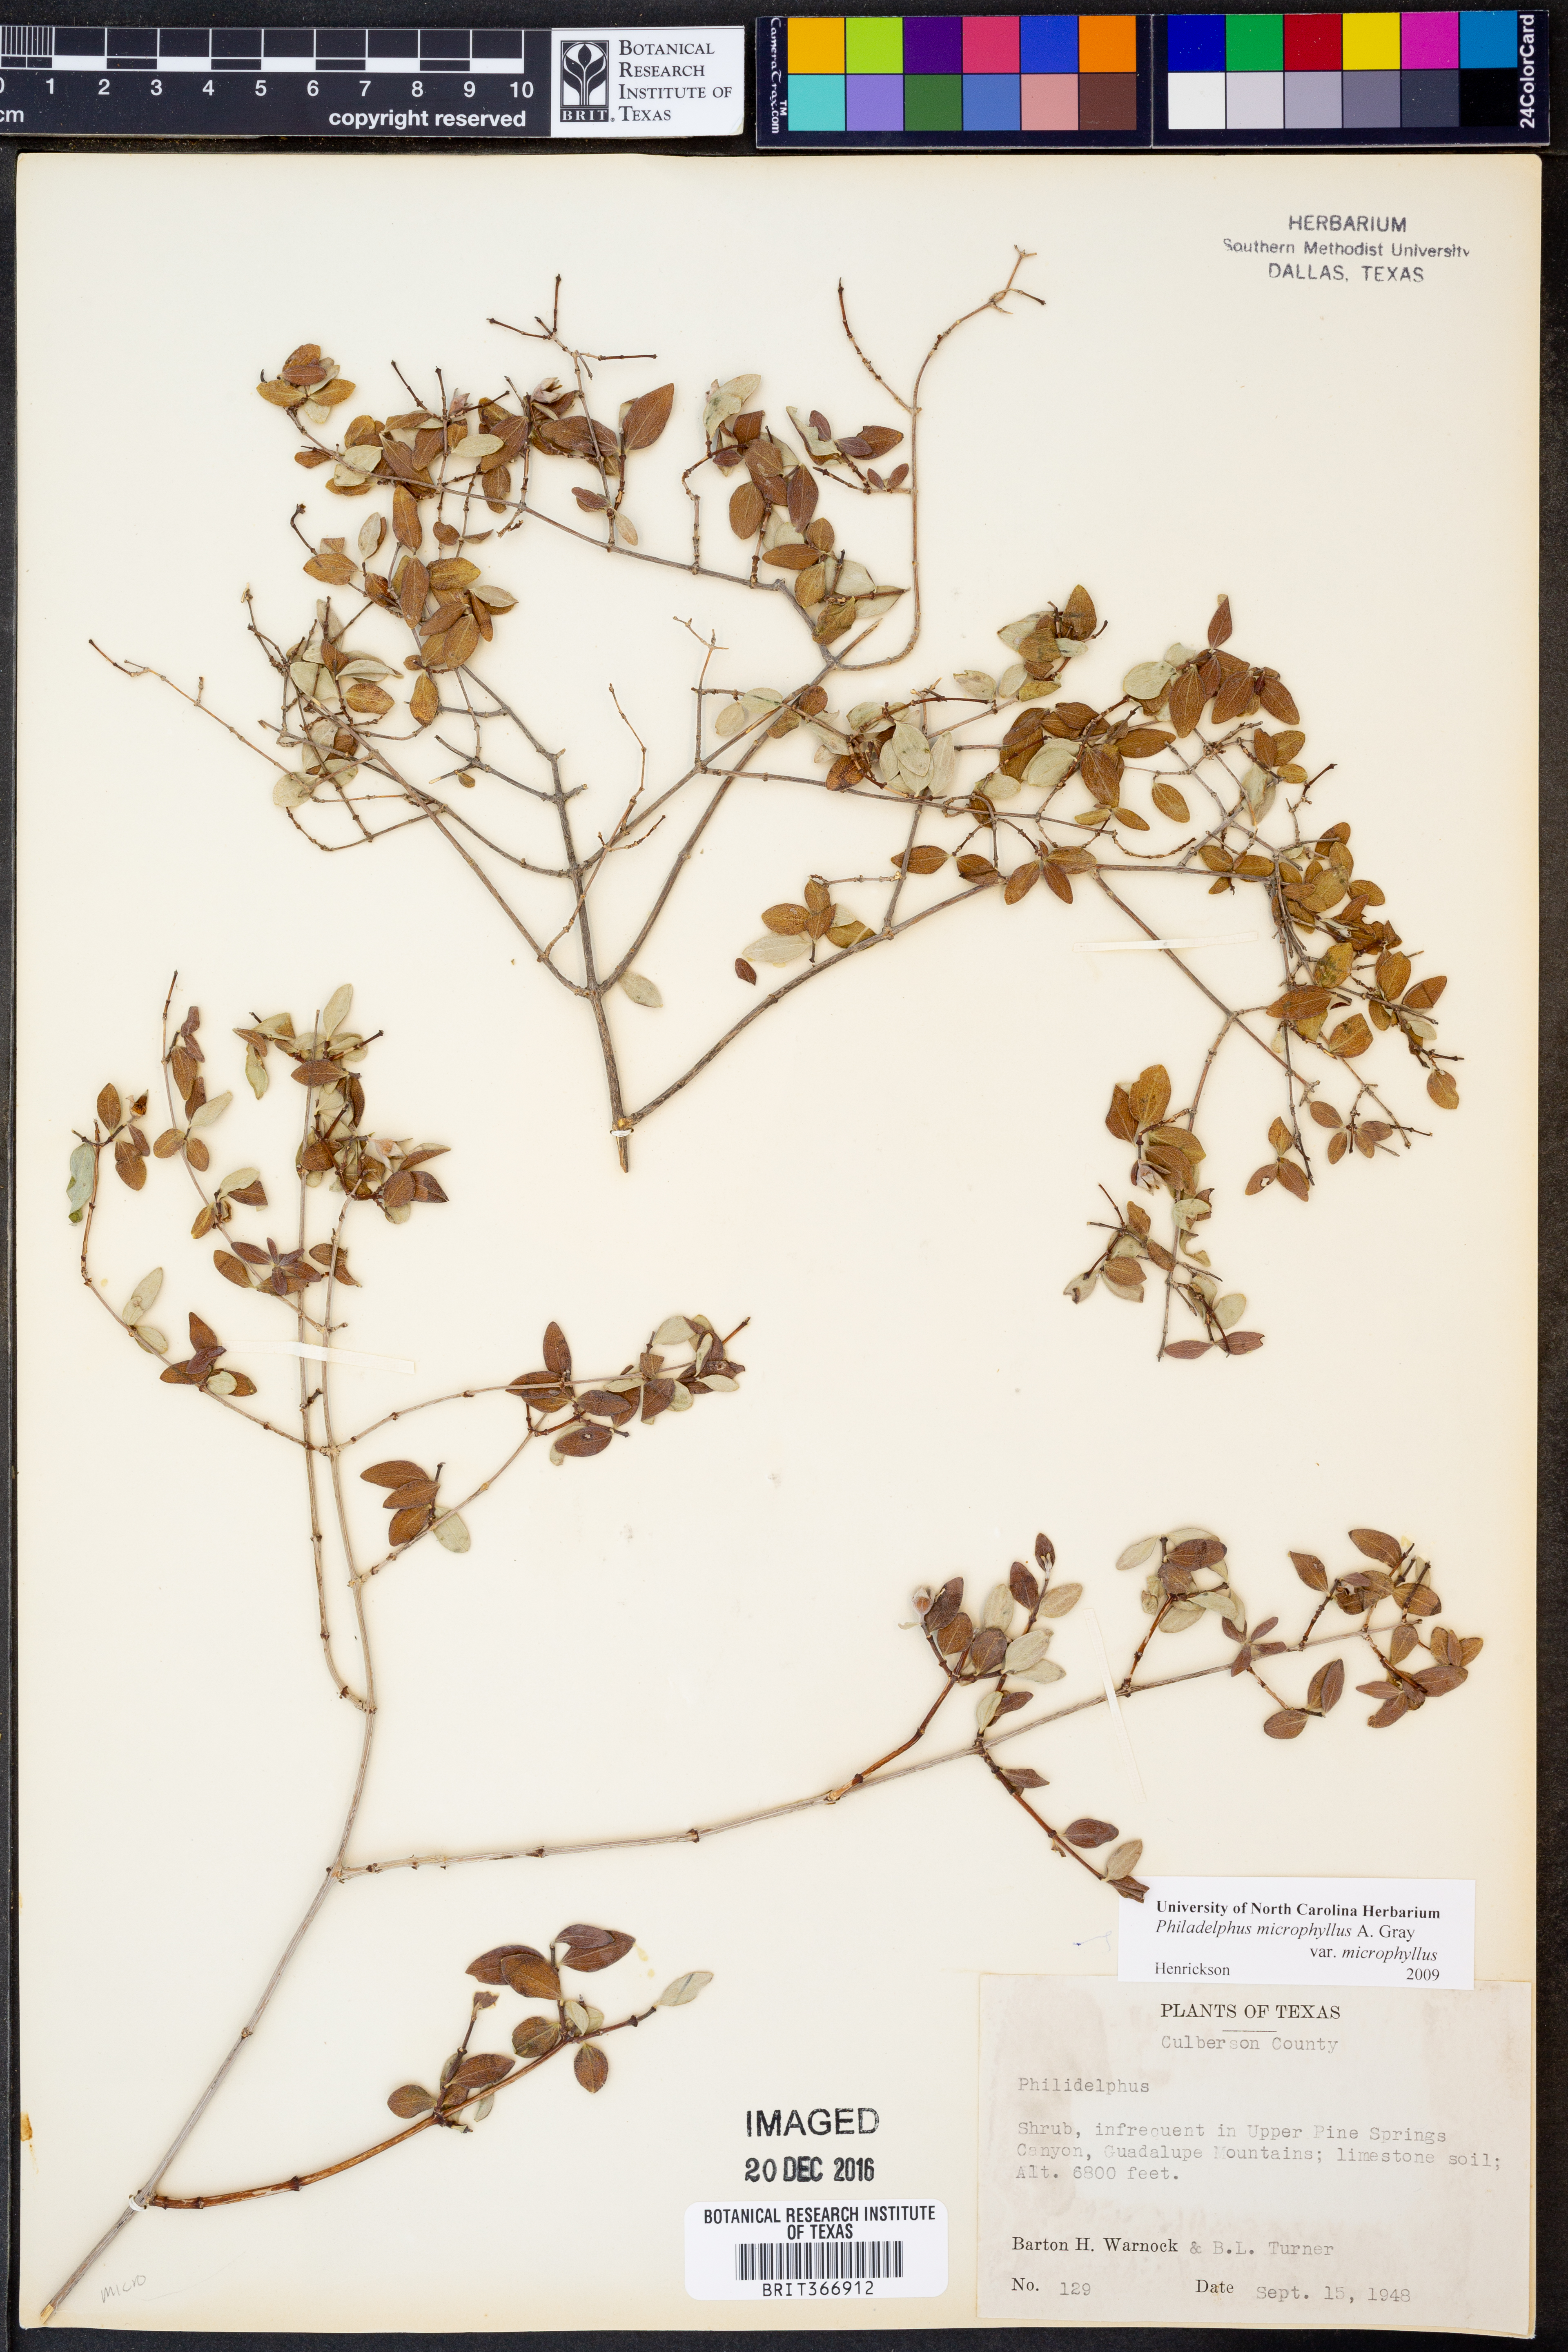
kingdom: Plantae
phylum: Tracheophyta
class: Magnoliopsida
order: Cornales
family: Hydrangeaceae
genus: Philadelphus
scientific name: Philadelphus microphyllus
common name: Desert mock orange
